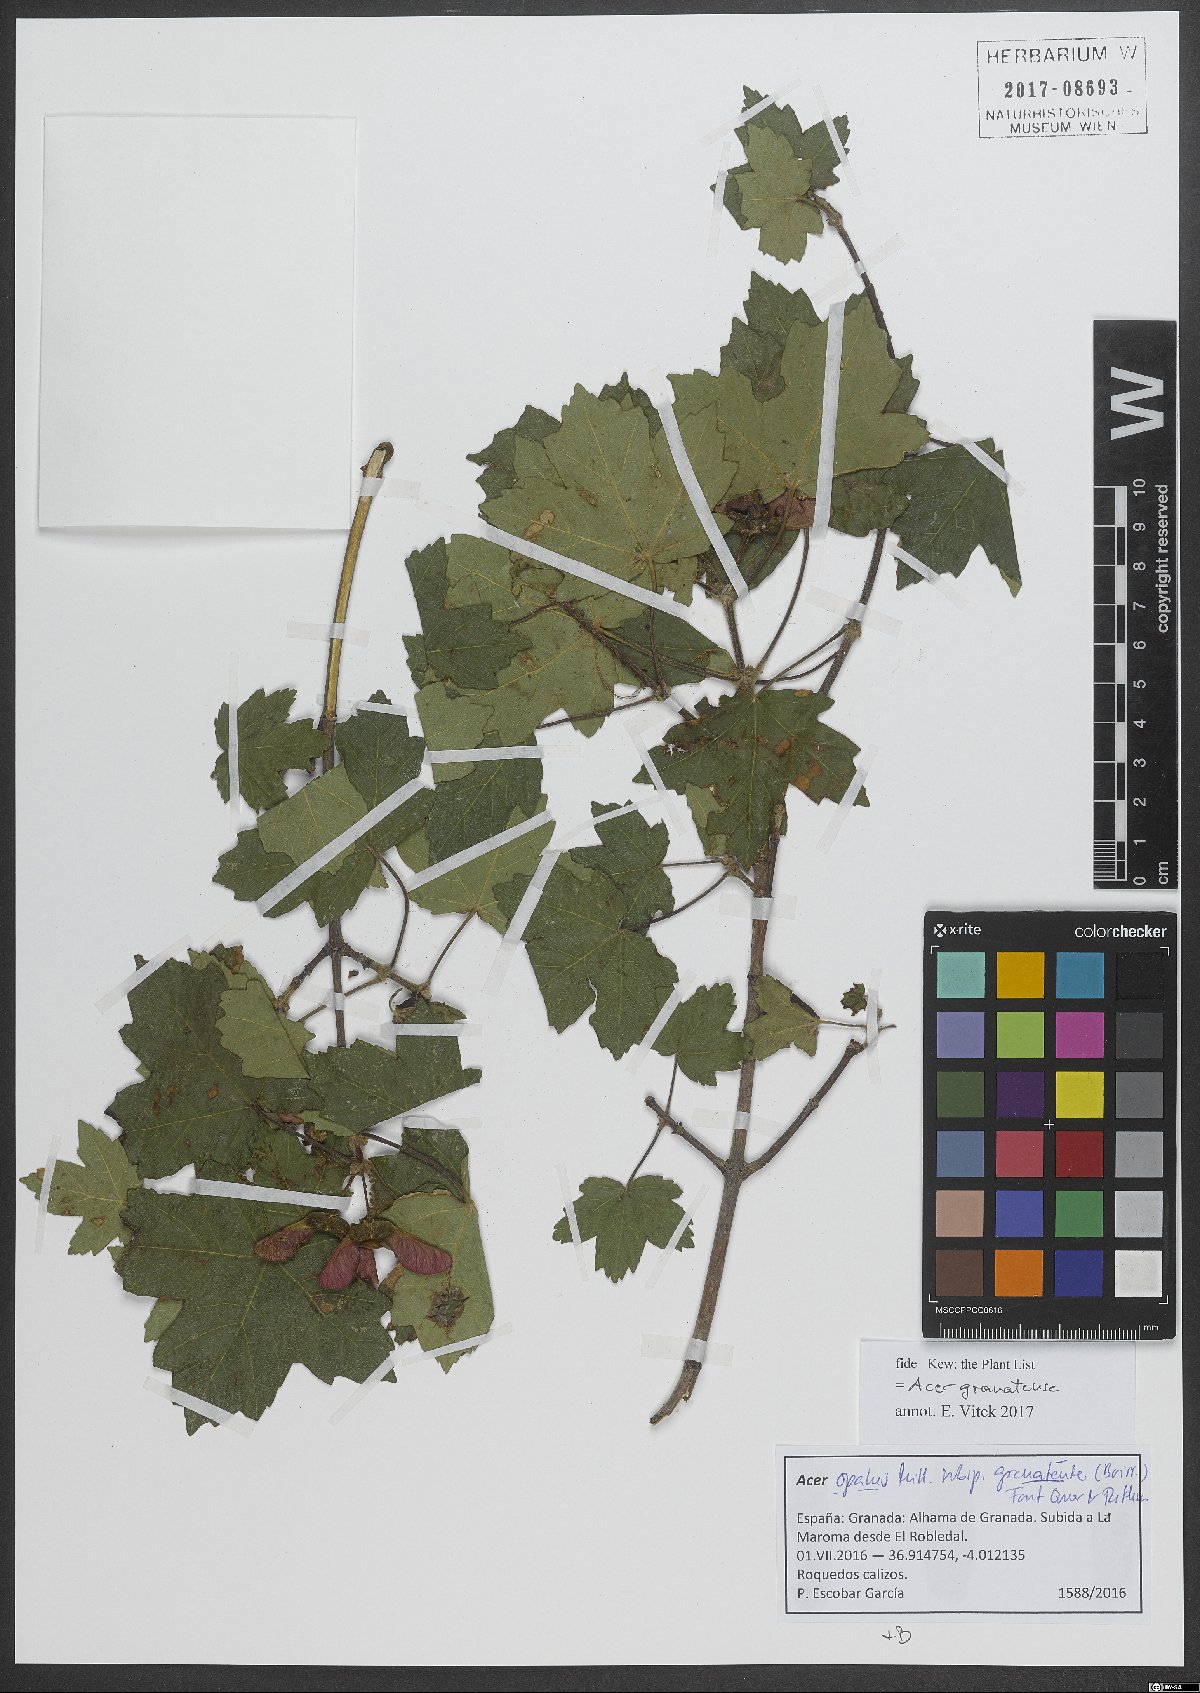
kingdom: Plantae
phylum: Tracheophyta
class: Magnoliopsida
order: Sapindales
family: Sapindaceae
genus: Acer
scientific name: Acer granatense
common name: Spanish maple
